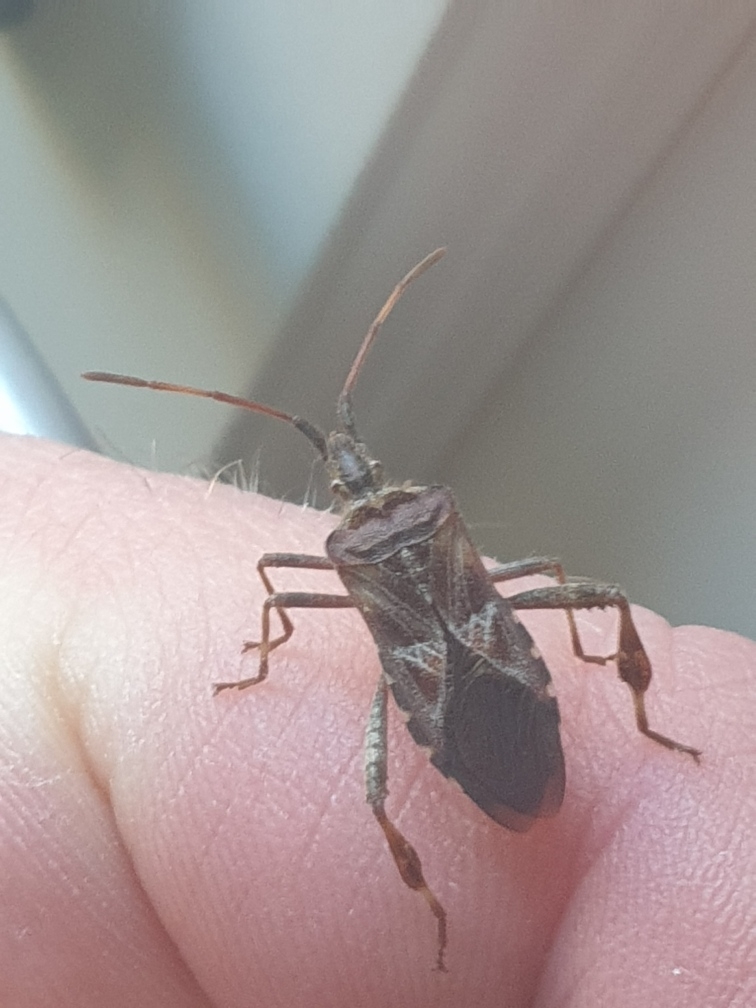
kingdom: Animalia
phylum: Arthropoda
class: Insecta
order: Hemiptera
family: Coreidae
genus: Leptoglossus
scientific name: Leptoglossus occidentalis
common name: Amerikansk fyrretæge
